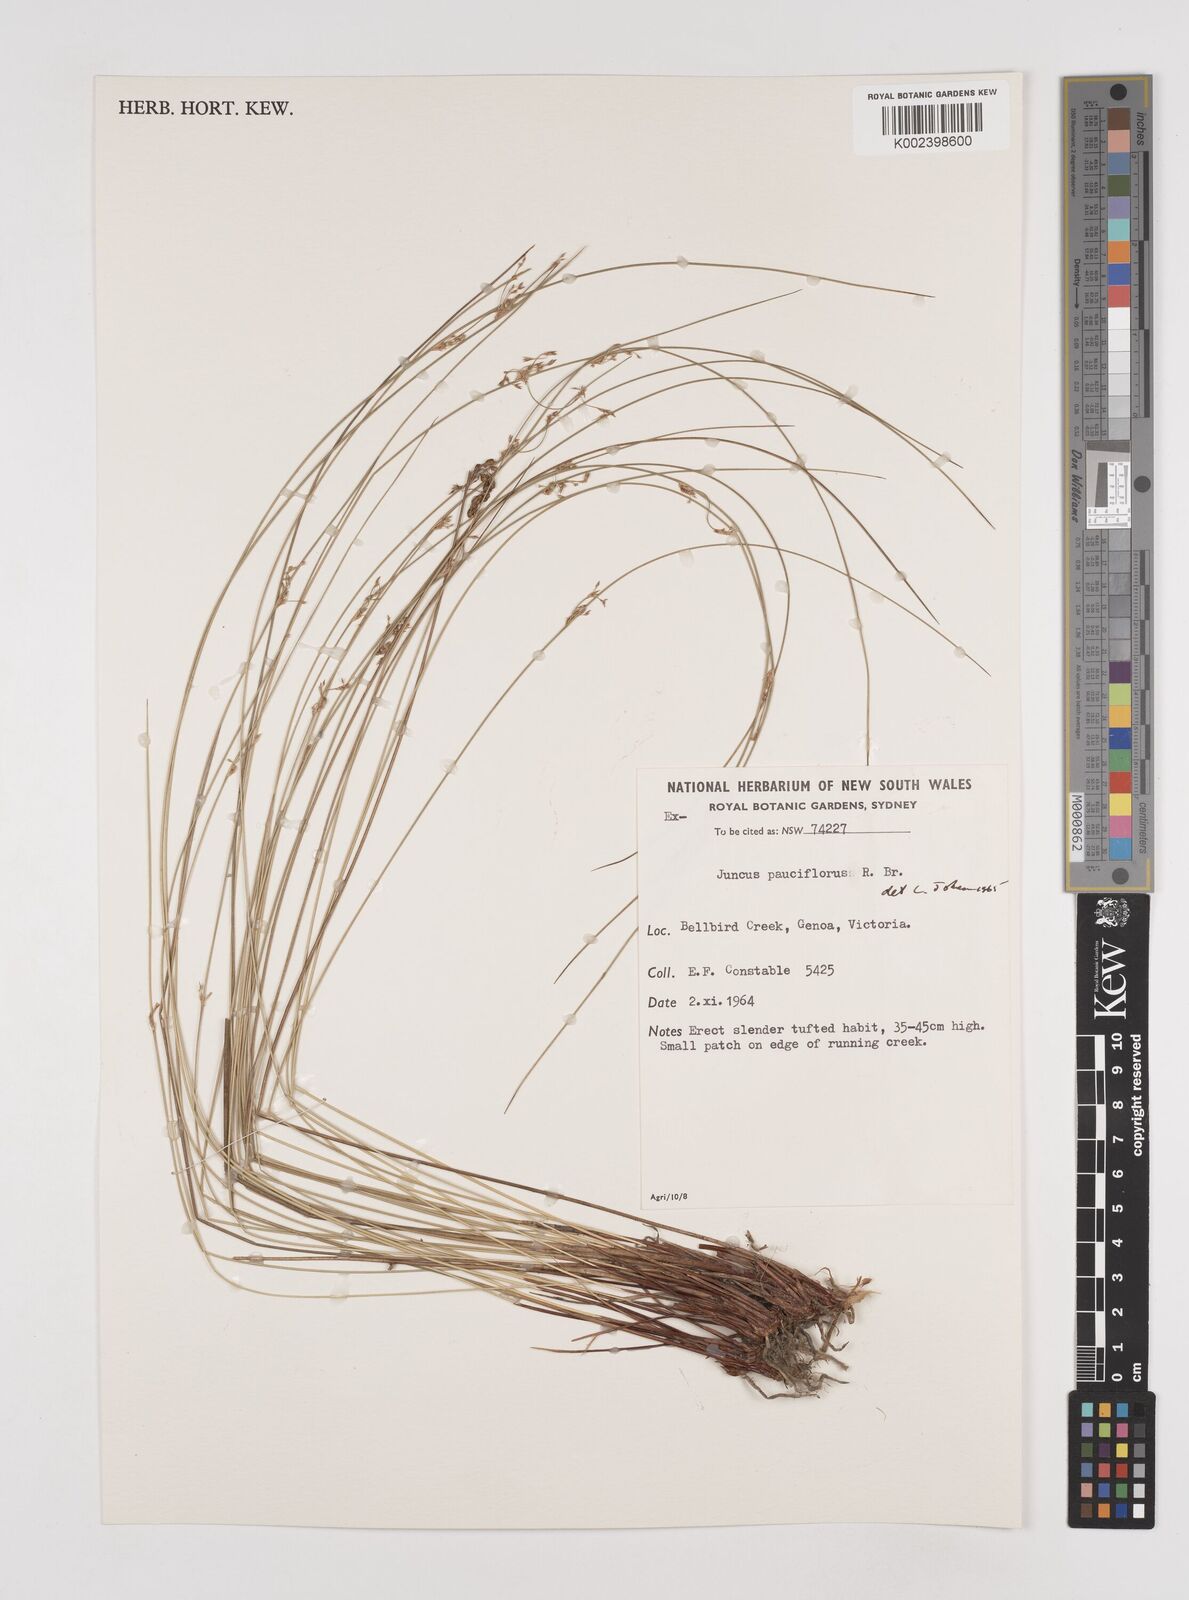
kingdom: Plantae
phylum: Tracheophyta
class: Liliopsida
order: Poales
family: Juncaceae
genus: Juncus
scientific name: Juncus pauciflorus
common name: Loose-flowered rush
